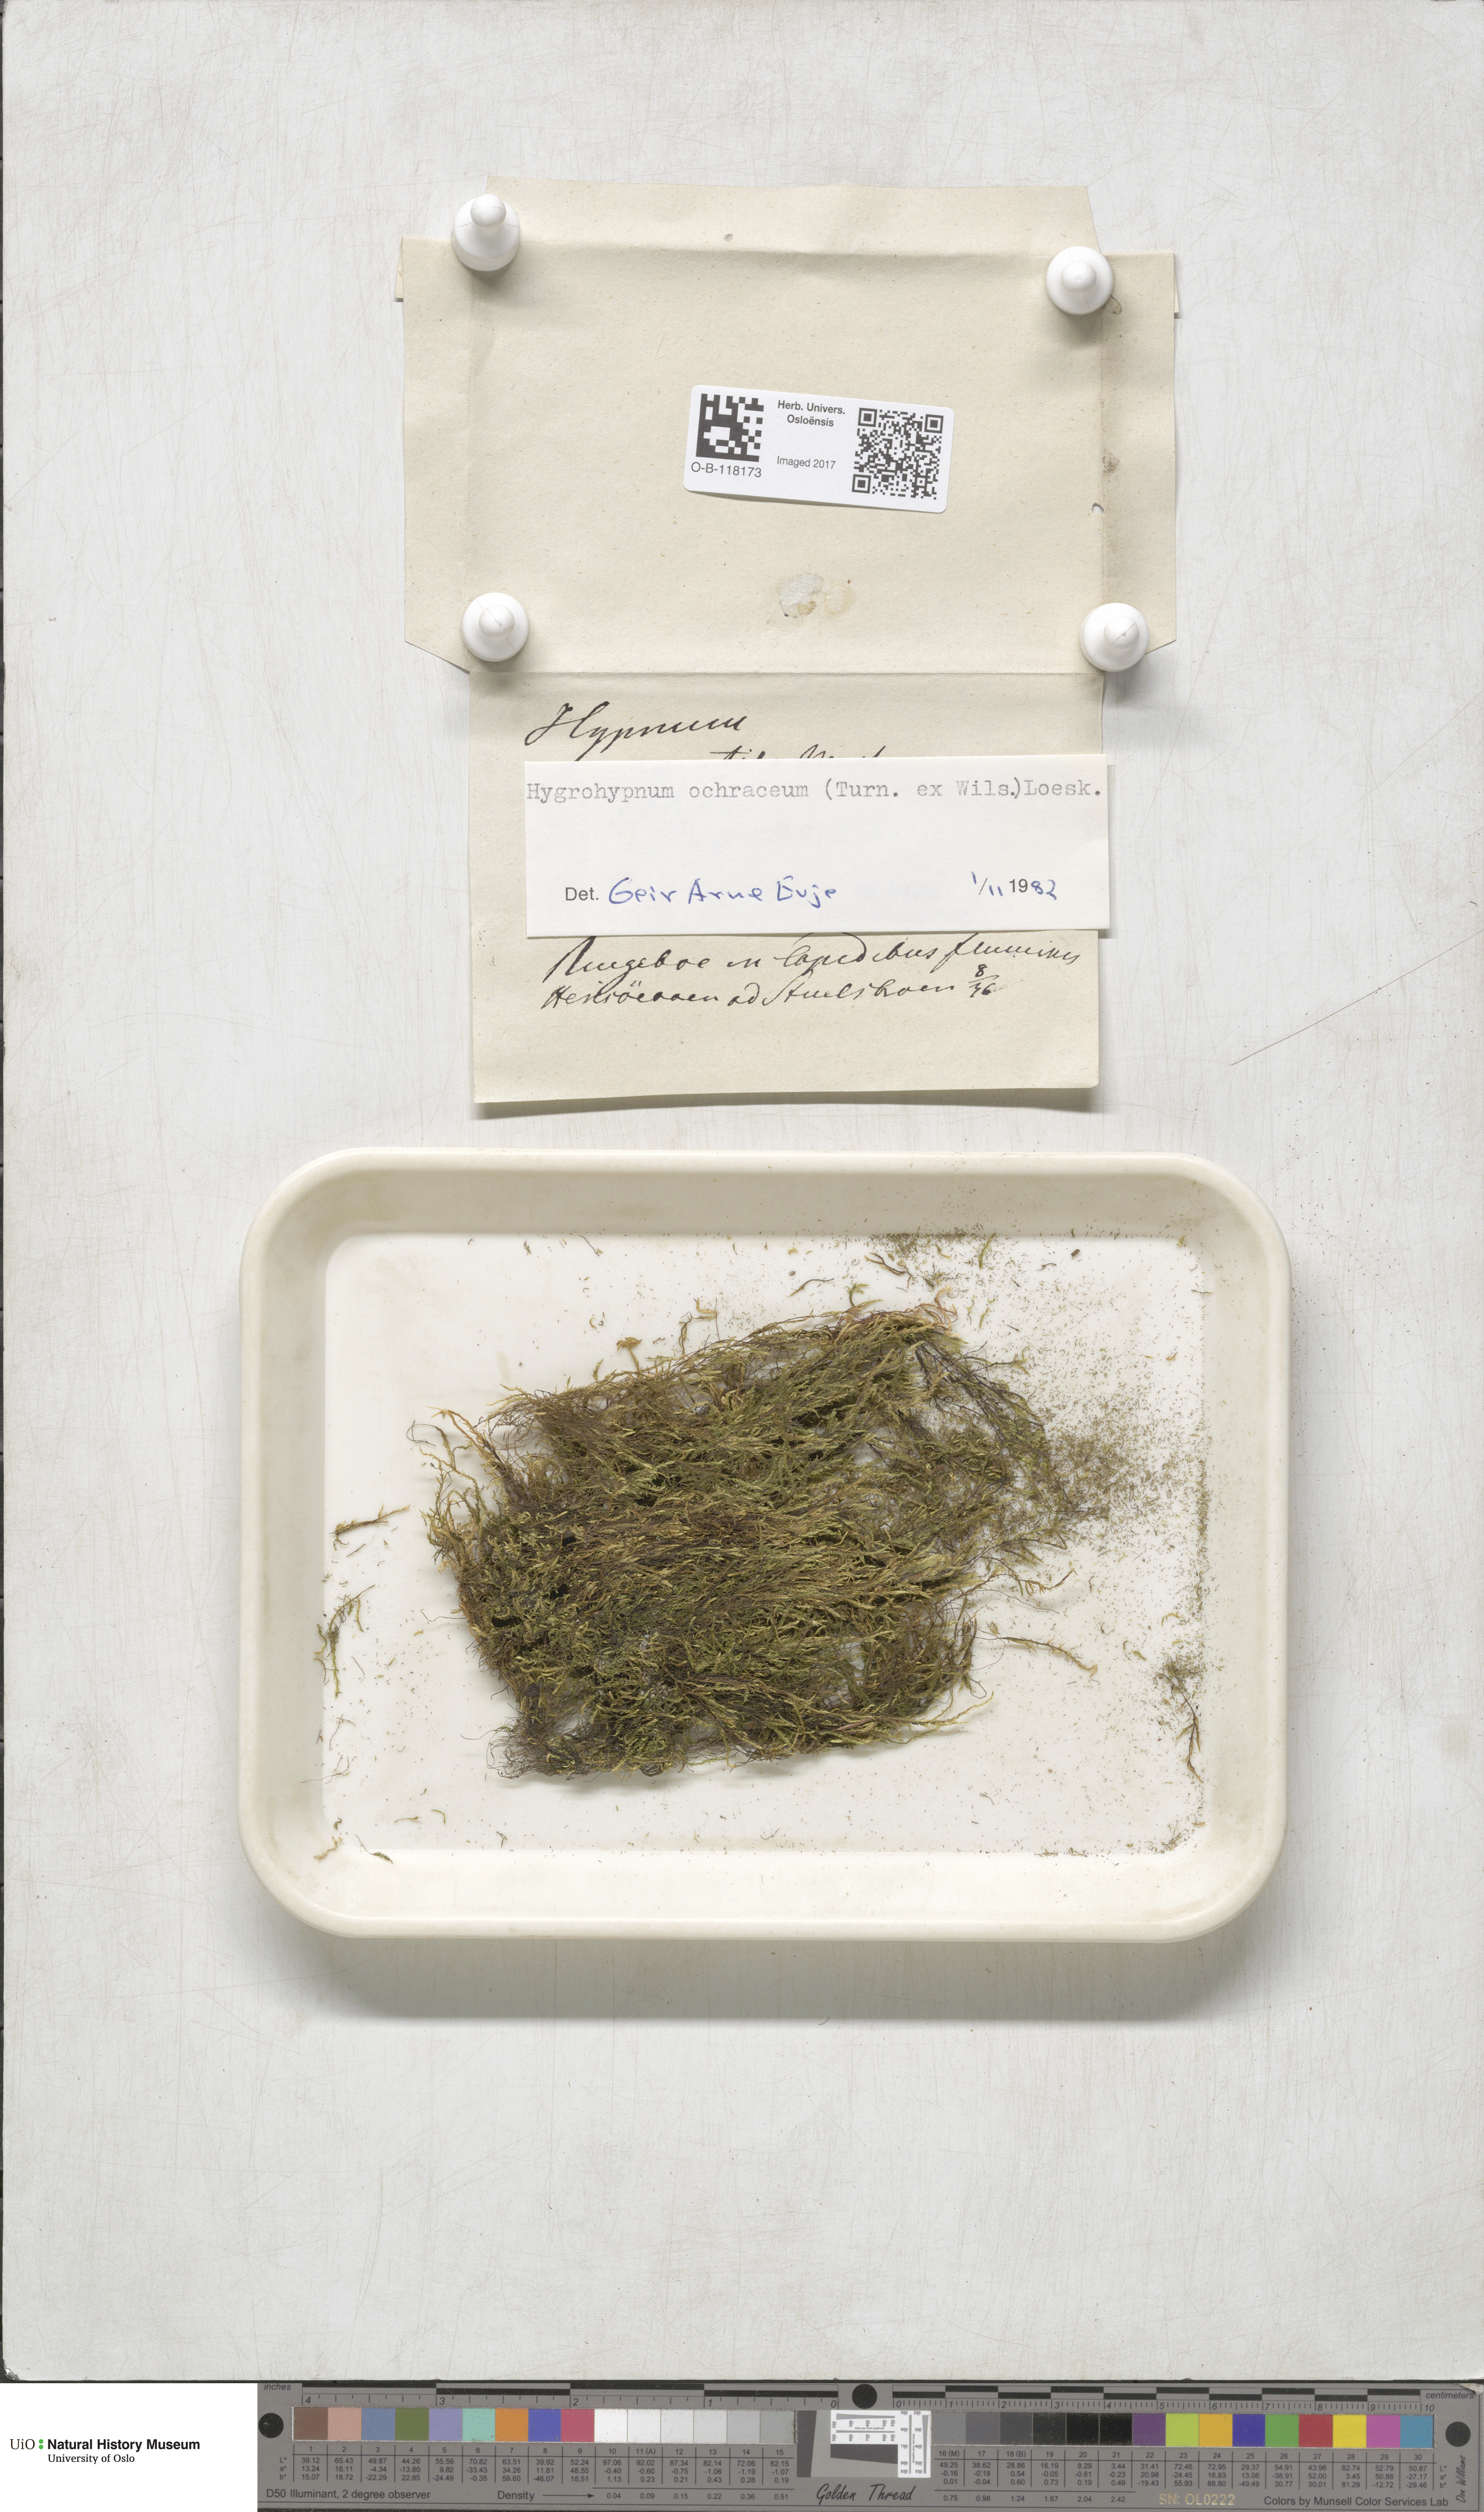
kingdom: Plantae
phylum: Bryophyta
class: Bryopsida
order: Hypnales
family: Scorpidiaceae
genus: Hygrohypnella
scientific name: Hygrohypnella ochracea
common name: Hygrohypnum moss
